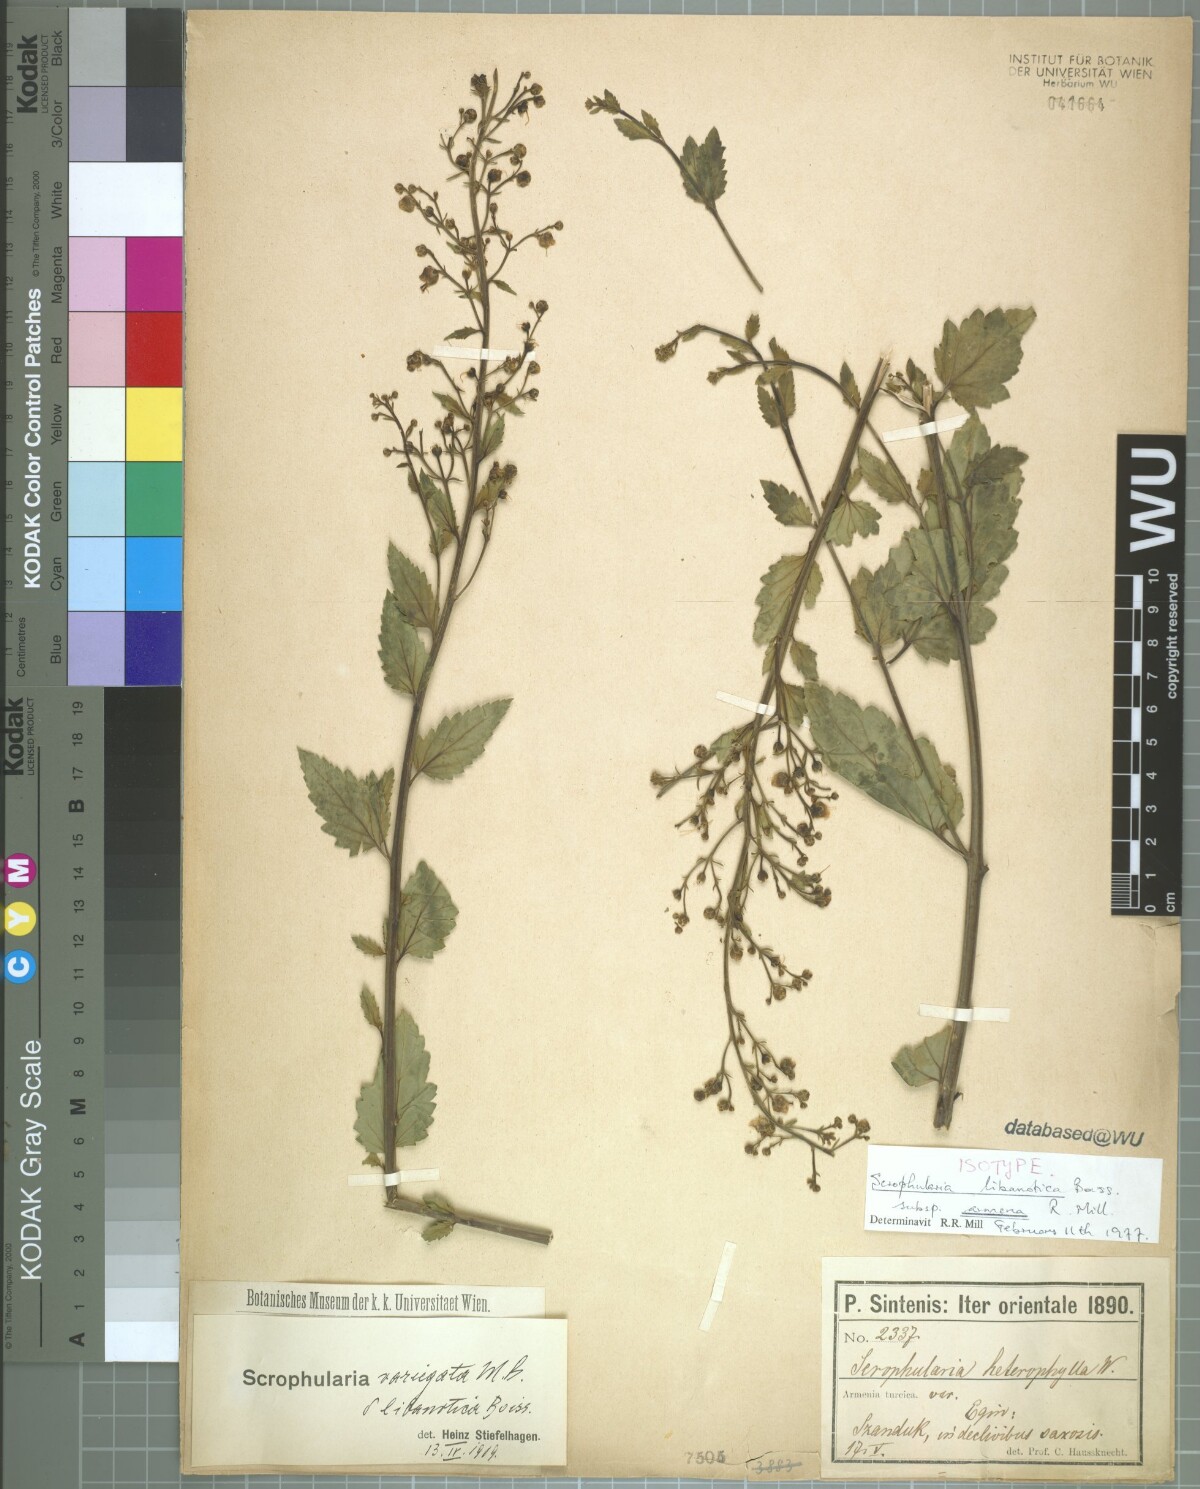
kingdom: Plantae
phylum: Tracheophyta
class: Magnoliopsida
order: Lamiales
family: Scrophulariaceae
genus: Scrophularia
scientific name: Scrophularia libanotica
